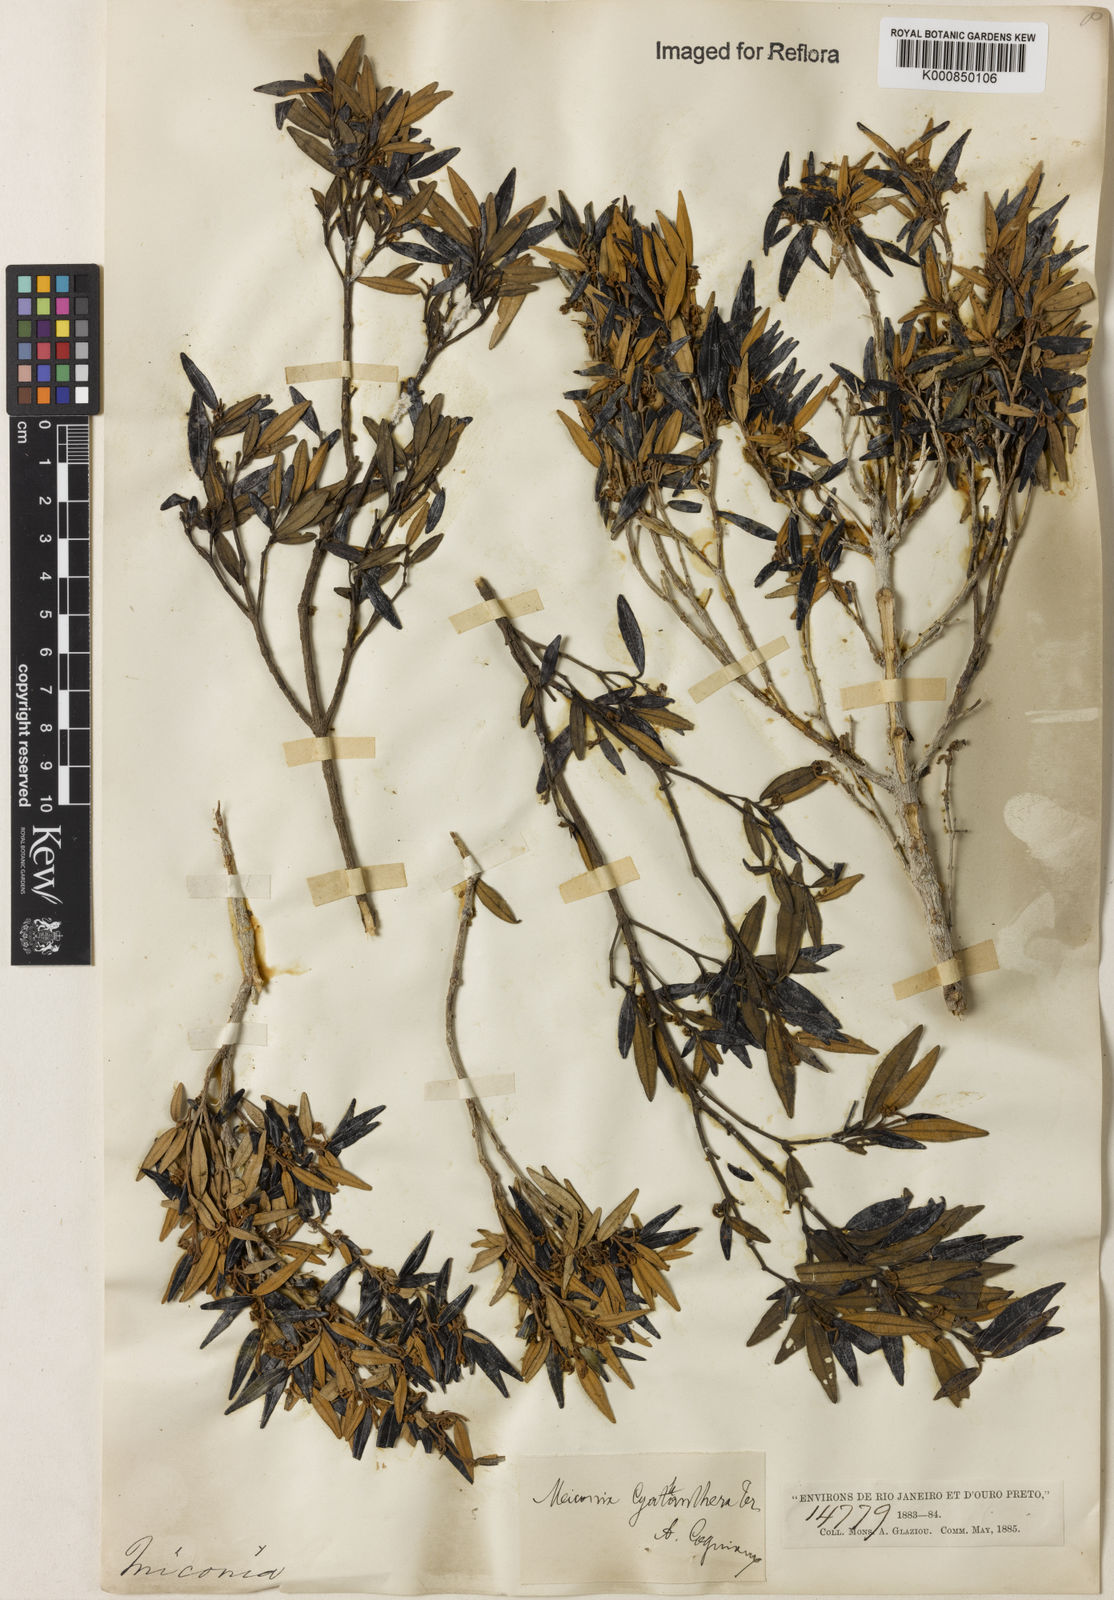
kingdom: Plantae
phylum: Tracheophyta
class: Magnoliopsida
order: Myrtales
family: Melastomataceae
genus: Miconia
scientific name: Miconia cyathanthera
